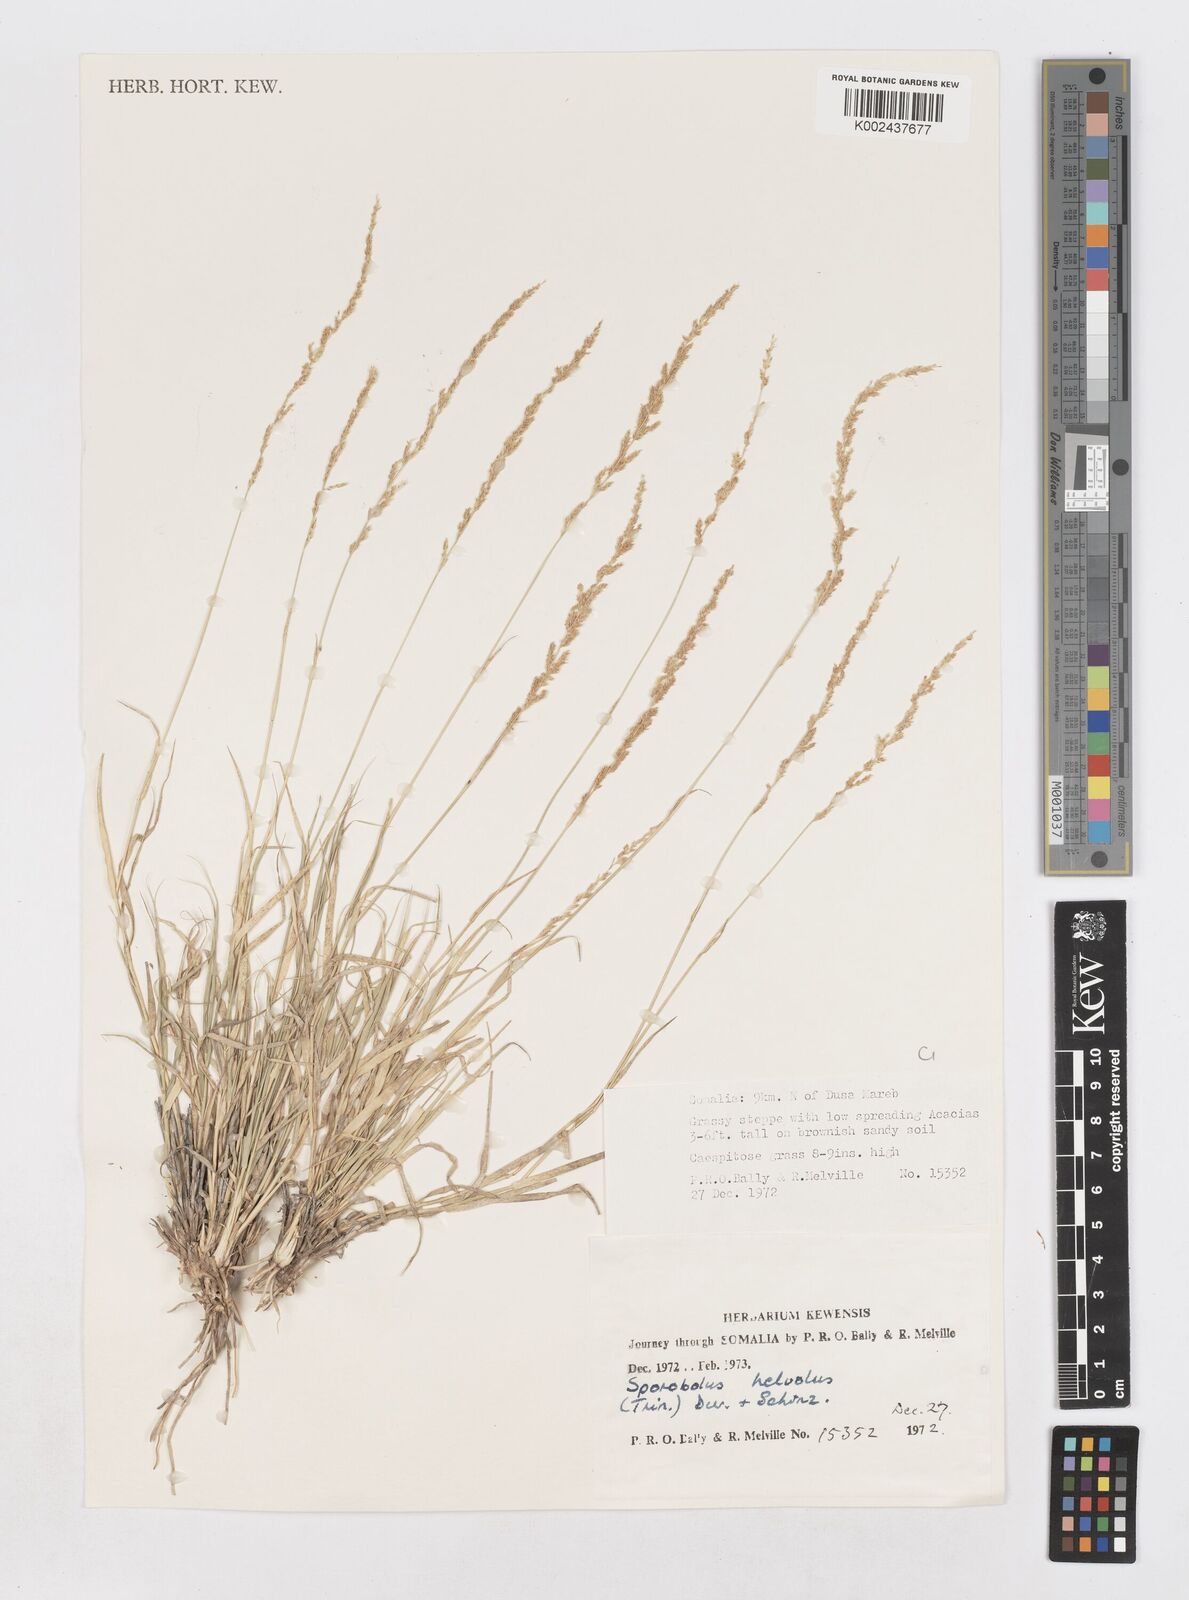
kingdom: Plantae
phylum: Tracheophyta
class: Liliopsida
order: Poales
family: Poaceae
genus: Sporobolus
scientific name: Sporobolus helvolus
